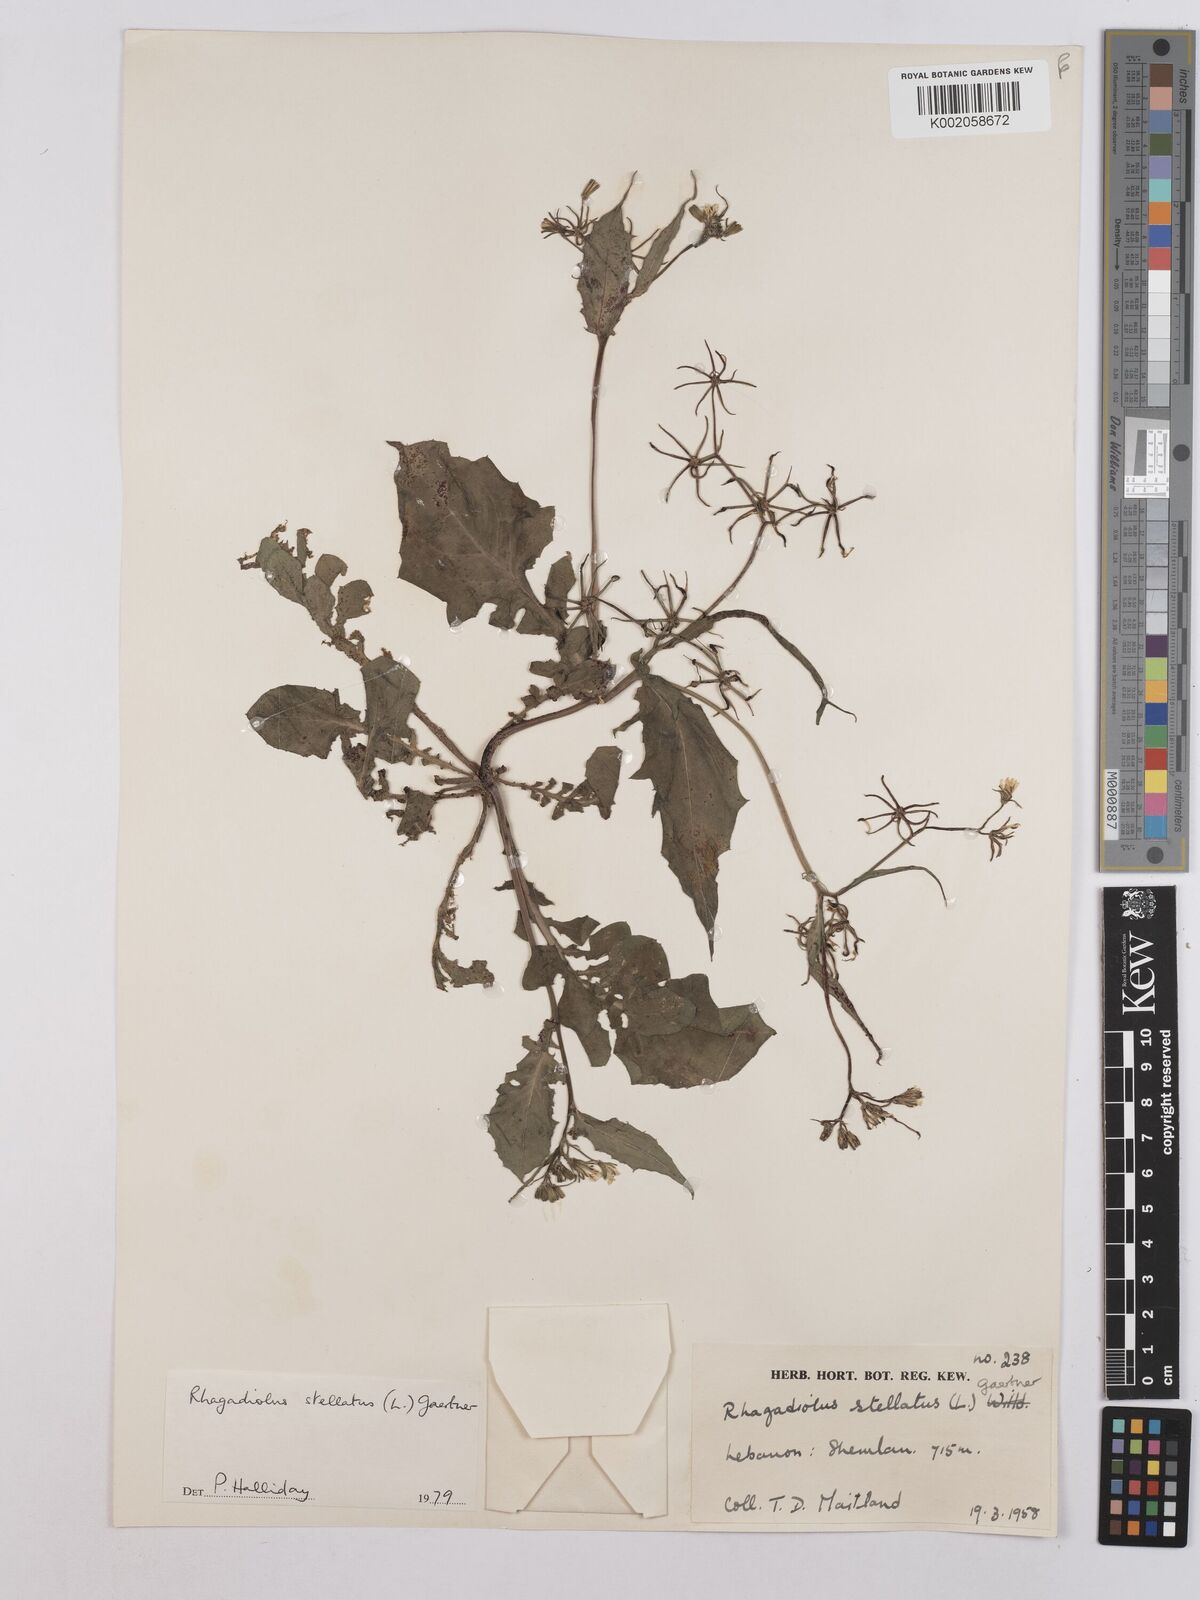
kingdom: Plantae
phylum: Tracheophyta
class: Magnoliopsida
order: Asterales
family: Asteraceae
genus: Rhagadiolus
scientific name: Rhagadiolus stellatus
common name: Star hawkbit
